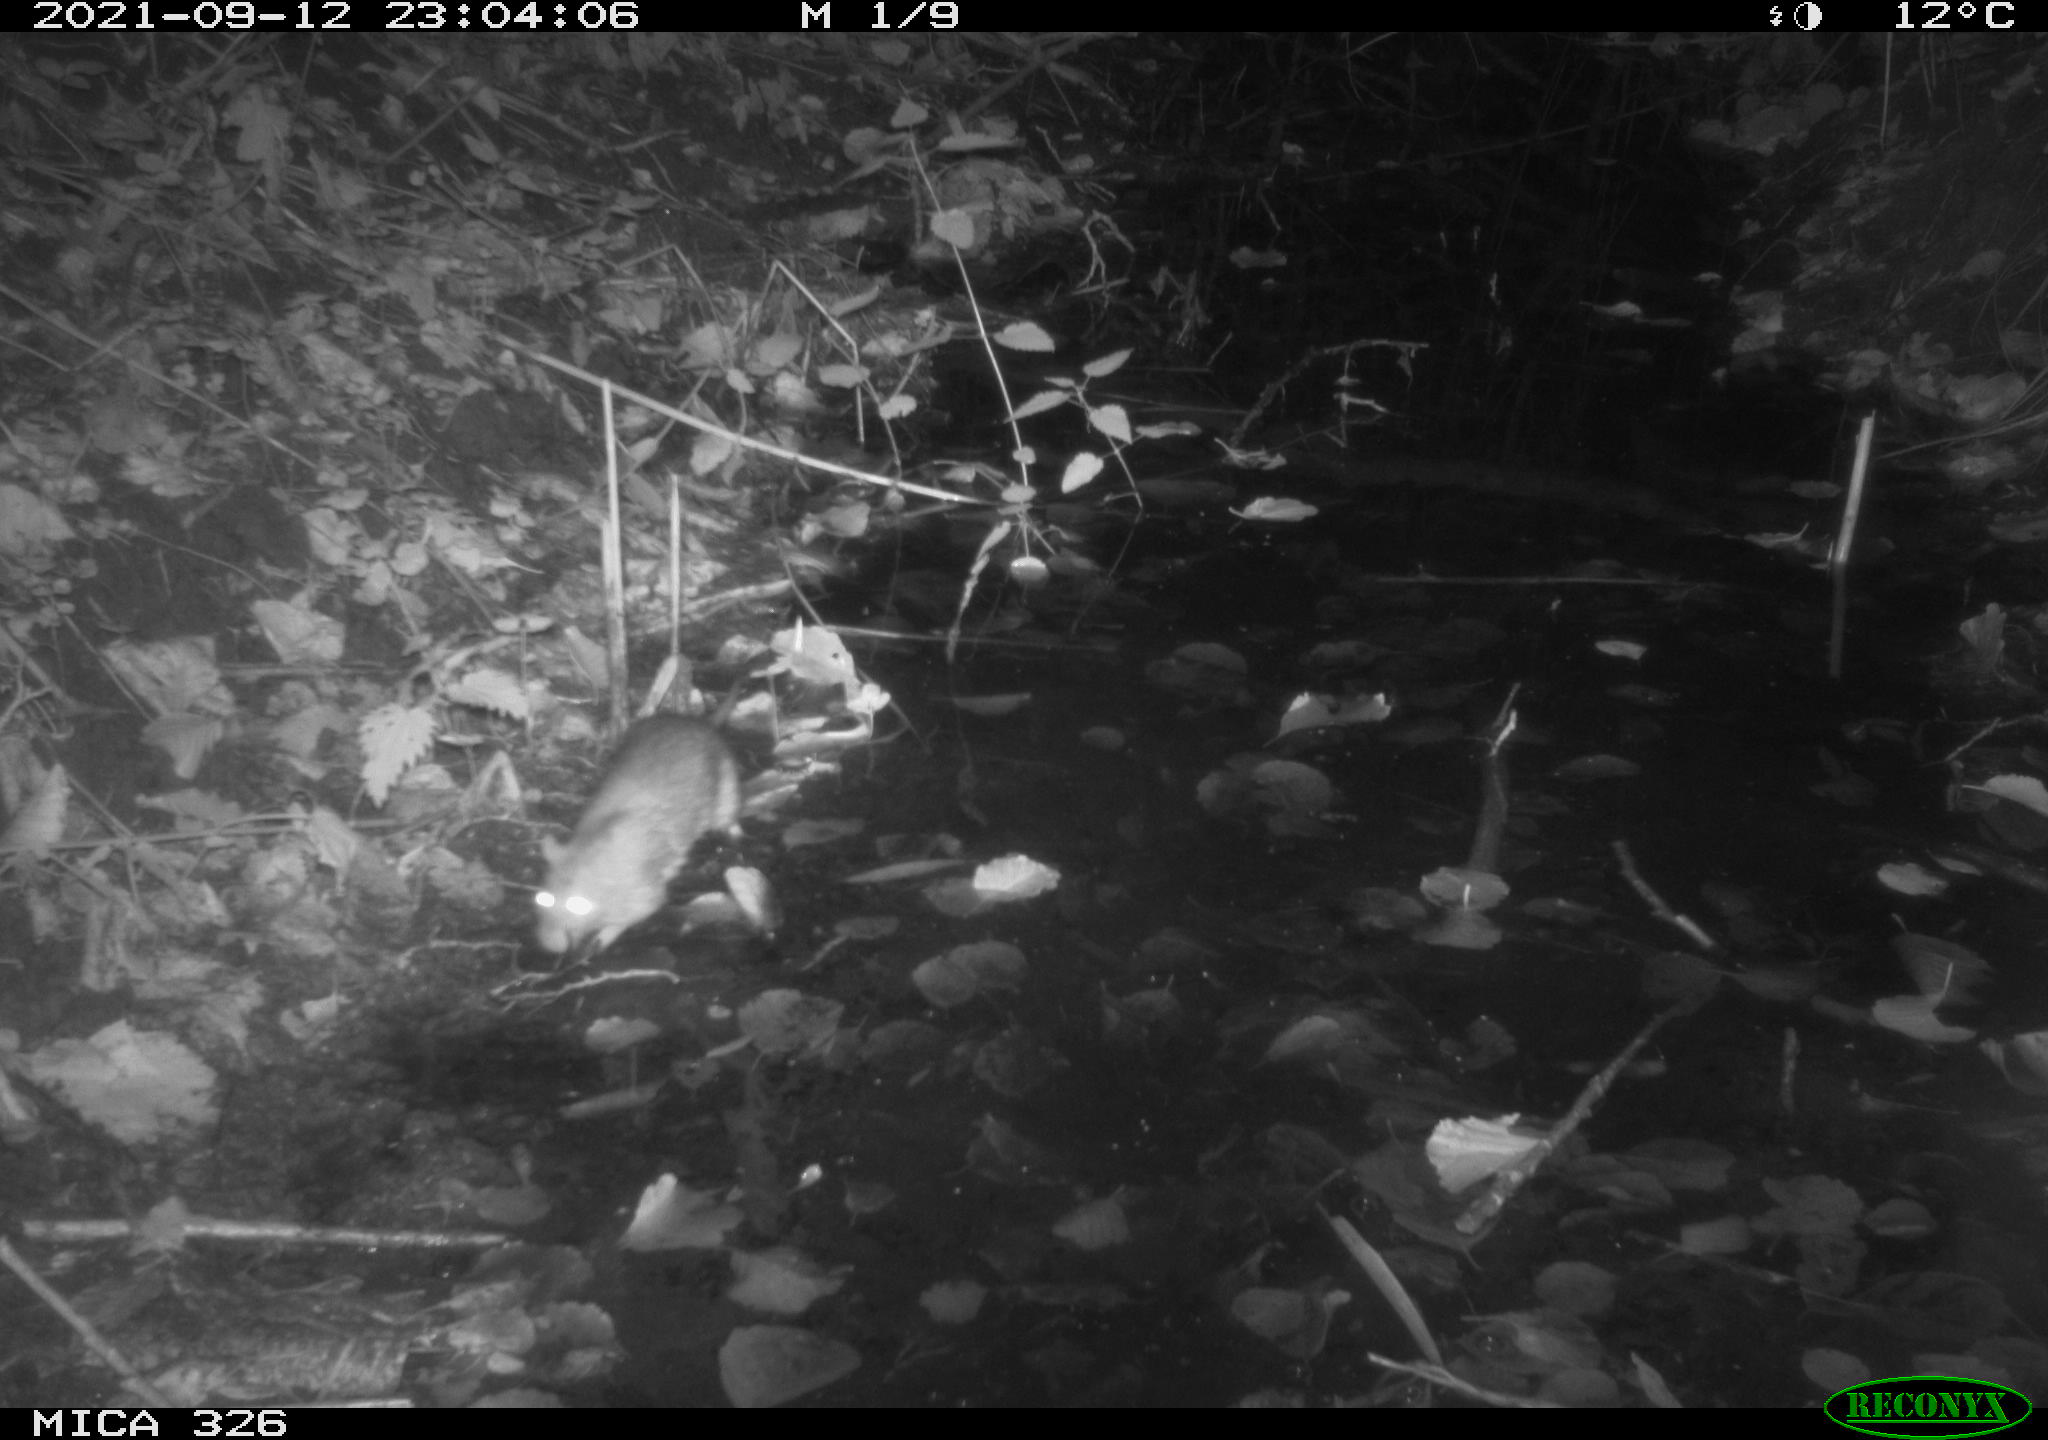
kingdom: Animalia
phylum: Chordata
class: Mammalia
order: Rodentia
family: Muridae
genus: Rattus
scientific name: Rattus norvegicus
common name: Brown rat
